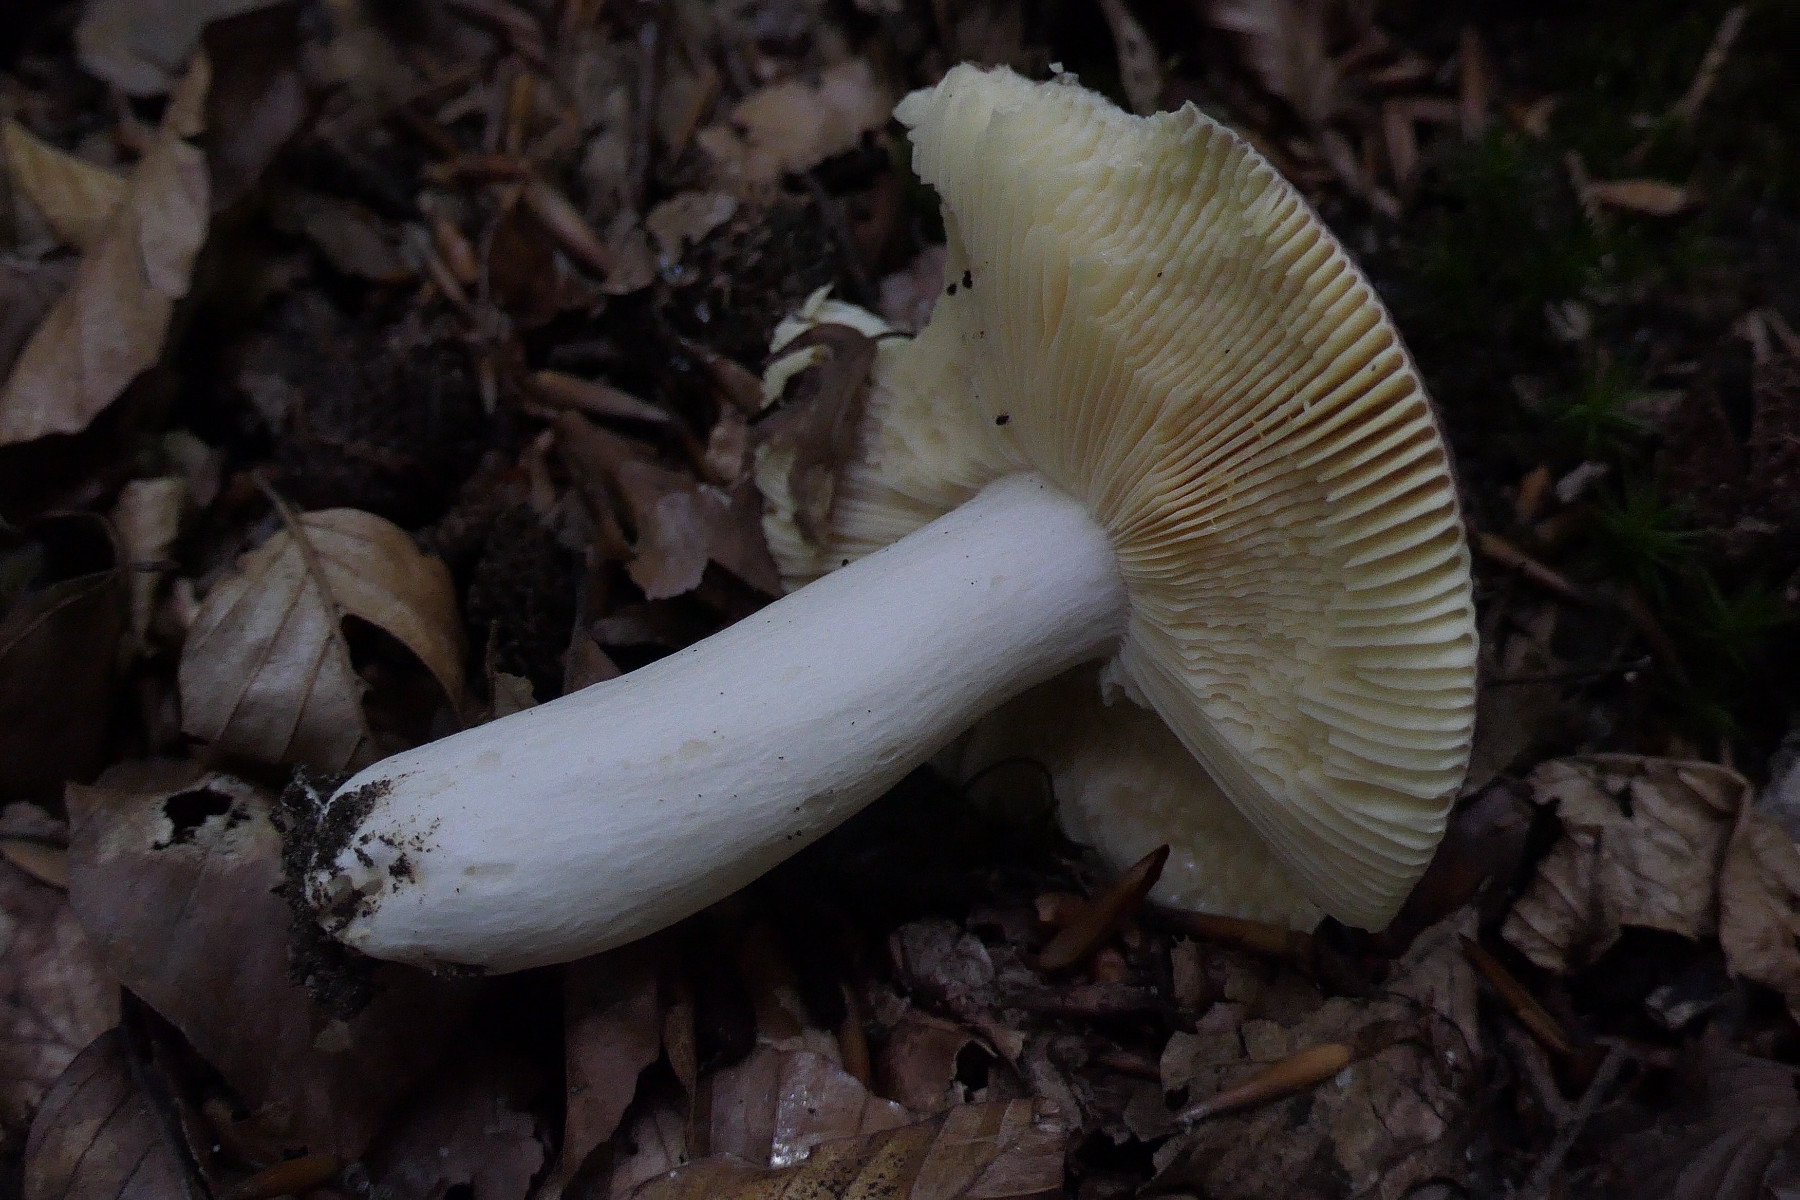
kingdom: Fungi
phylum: Basidiomycota
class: Agaricomycetes
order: Russulales
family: Russulaceae
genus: Russula
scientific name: Russula romellii
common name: romells skørhat
